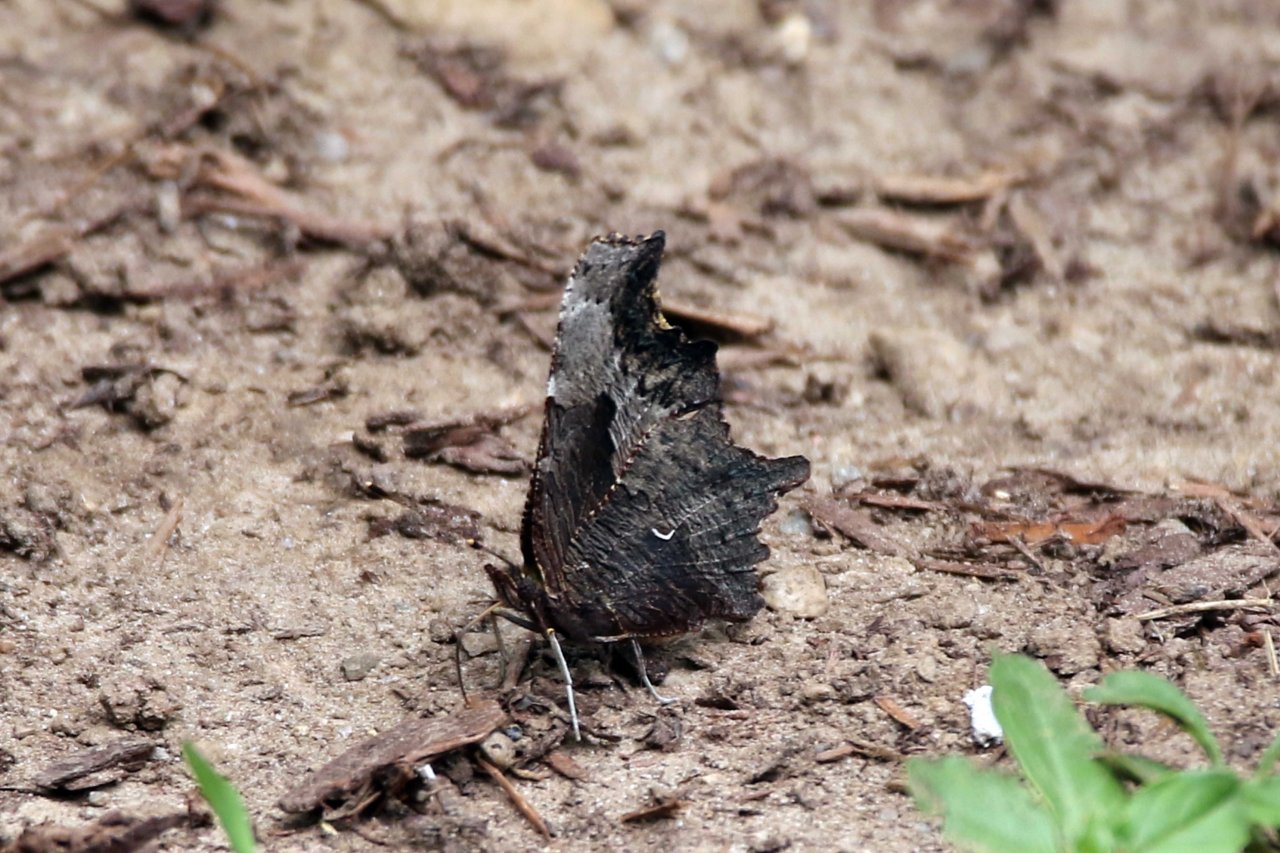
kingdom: Animalia
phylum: Arthropoda
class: Insecta
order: Lepidoptera
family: Nymphalidae
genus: Polygonia
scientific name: Polygonia progne
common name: Gray Comma
